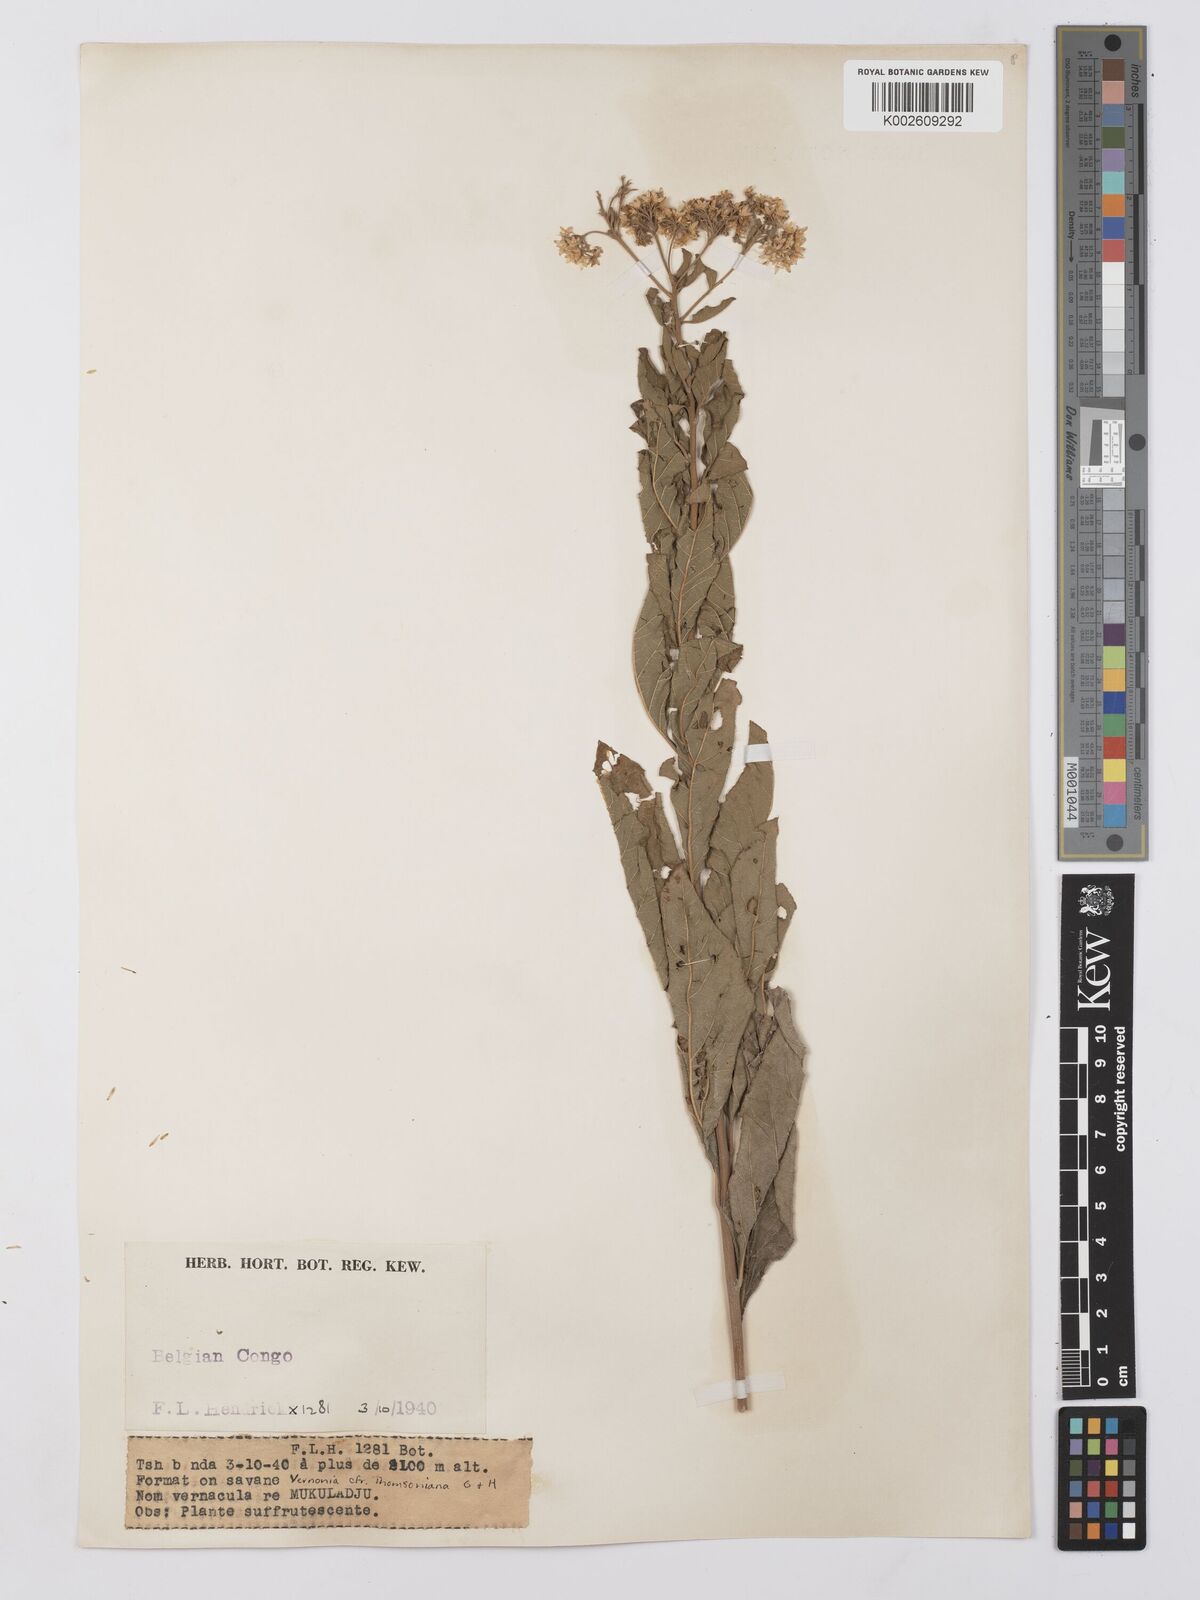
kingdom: Plantae
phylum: Tracheophyta
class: Magnoliopsida
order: Asterales
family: Asteraceae
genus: Gymnanthemum
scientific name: Gymnanthemum thomsonianum
